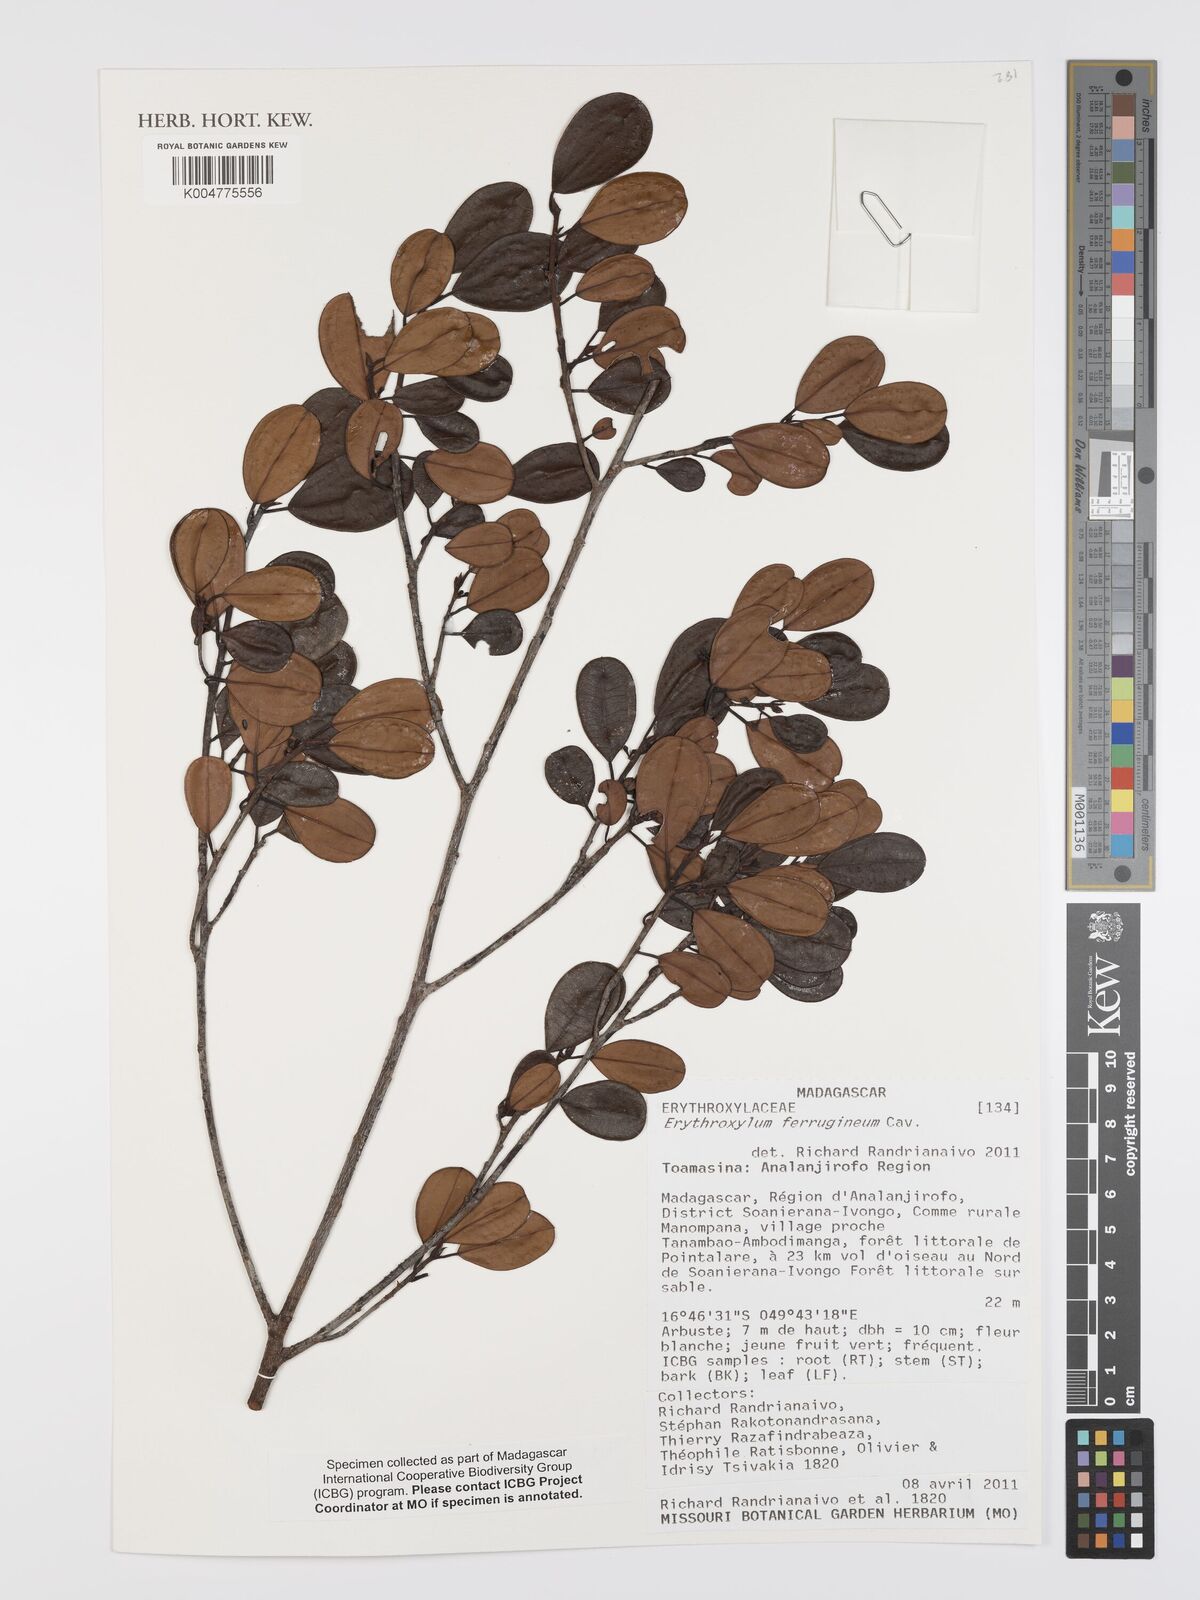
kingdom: Plantae
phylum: Tracheophyta
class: Magnoliopsida
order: Malpighiales
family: Erythroxylaceae
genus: Erythroxylum
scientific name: Erythroxylum ferrugineum
